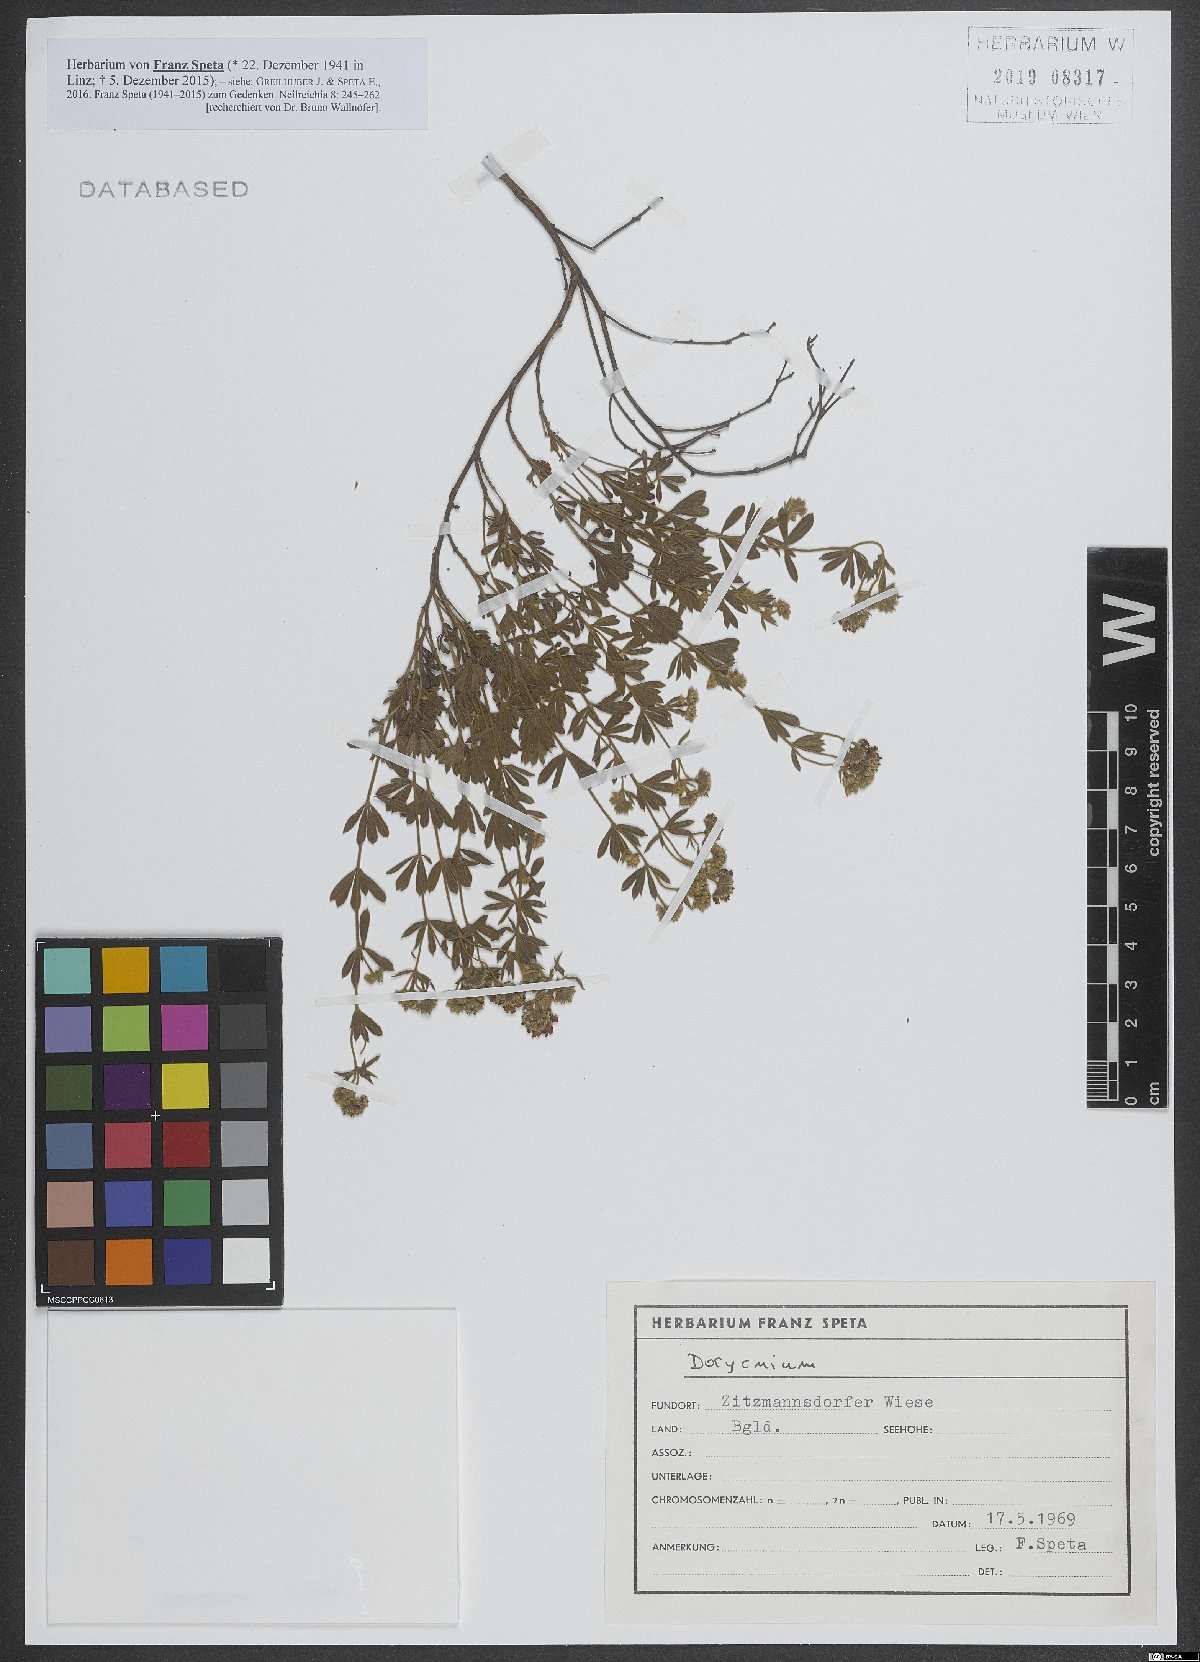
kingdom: Plantae
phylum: Tracheophyta
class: Magnoliopsida
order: Fabales
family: Fabaceae
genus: Lotus
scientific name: Lotus
